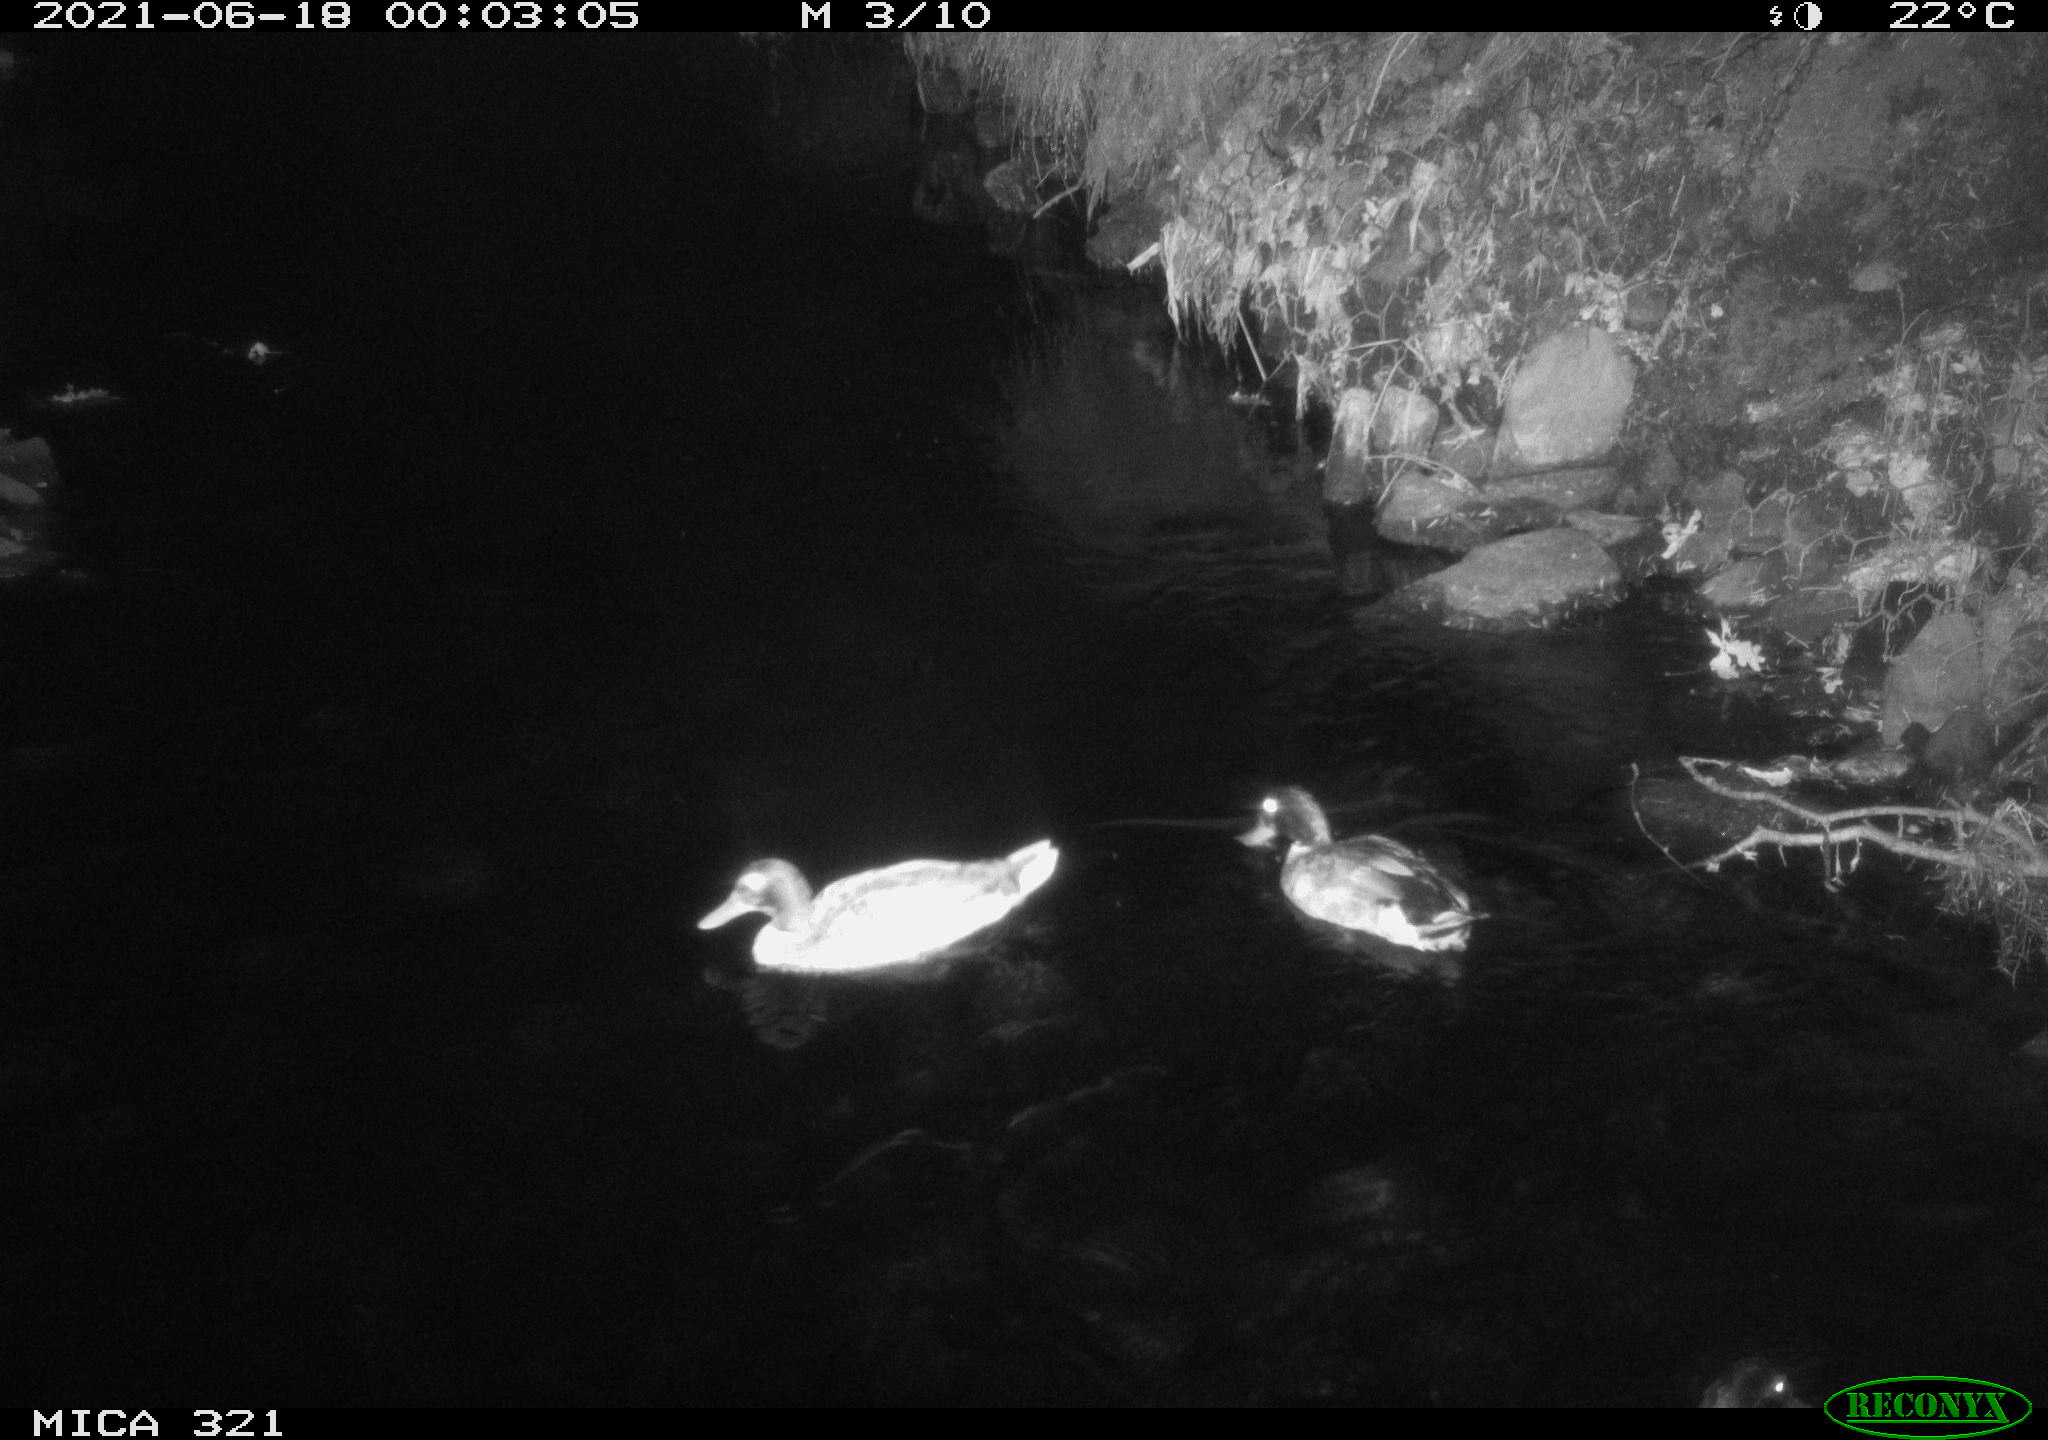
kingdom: Animalia
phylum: Chordata
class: Aves
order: Anseriformes
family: Anatidae
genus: Anas
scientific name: Anas platyrhynchos
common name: Mallard
